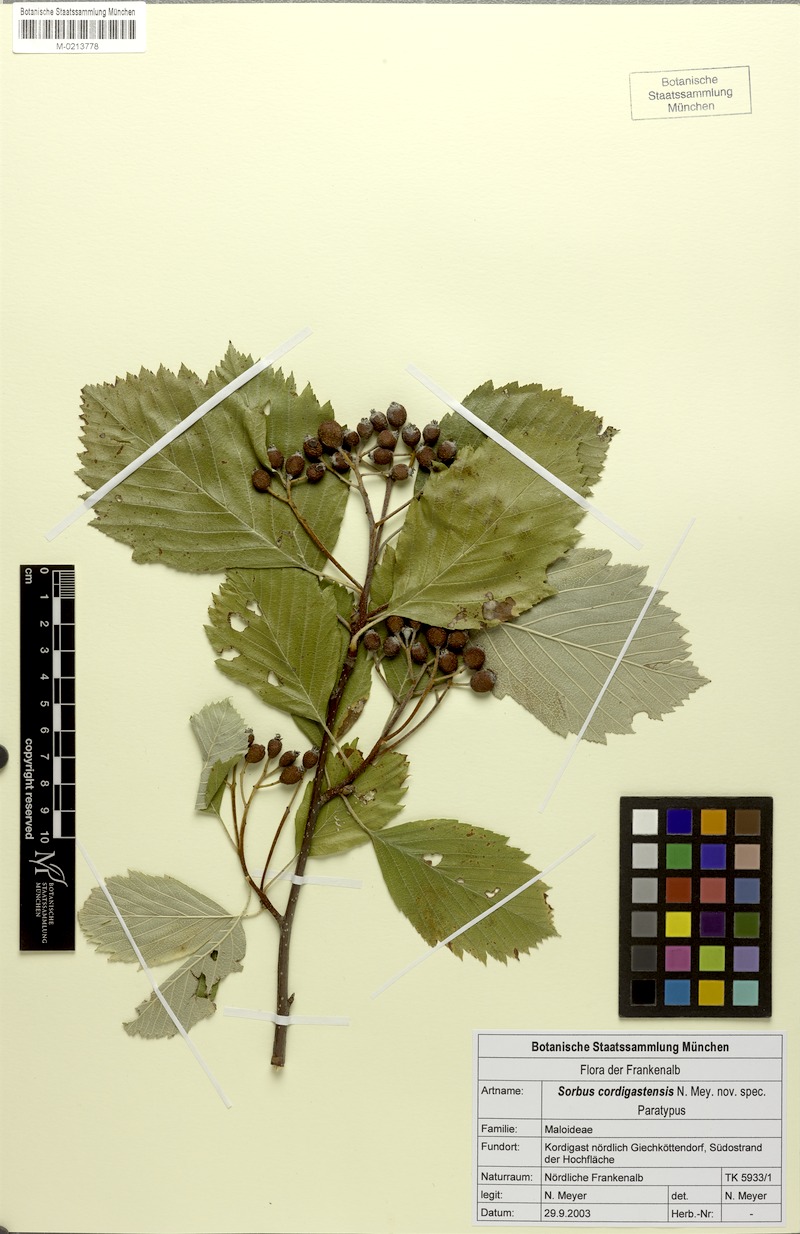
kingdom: Plantae
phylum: Tracheophyta
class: Magnoliopsida
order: Rosales
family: Rosaceae
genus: Karpatiosorbus
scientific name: Karpatiosorbus cordigastensis
